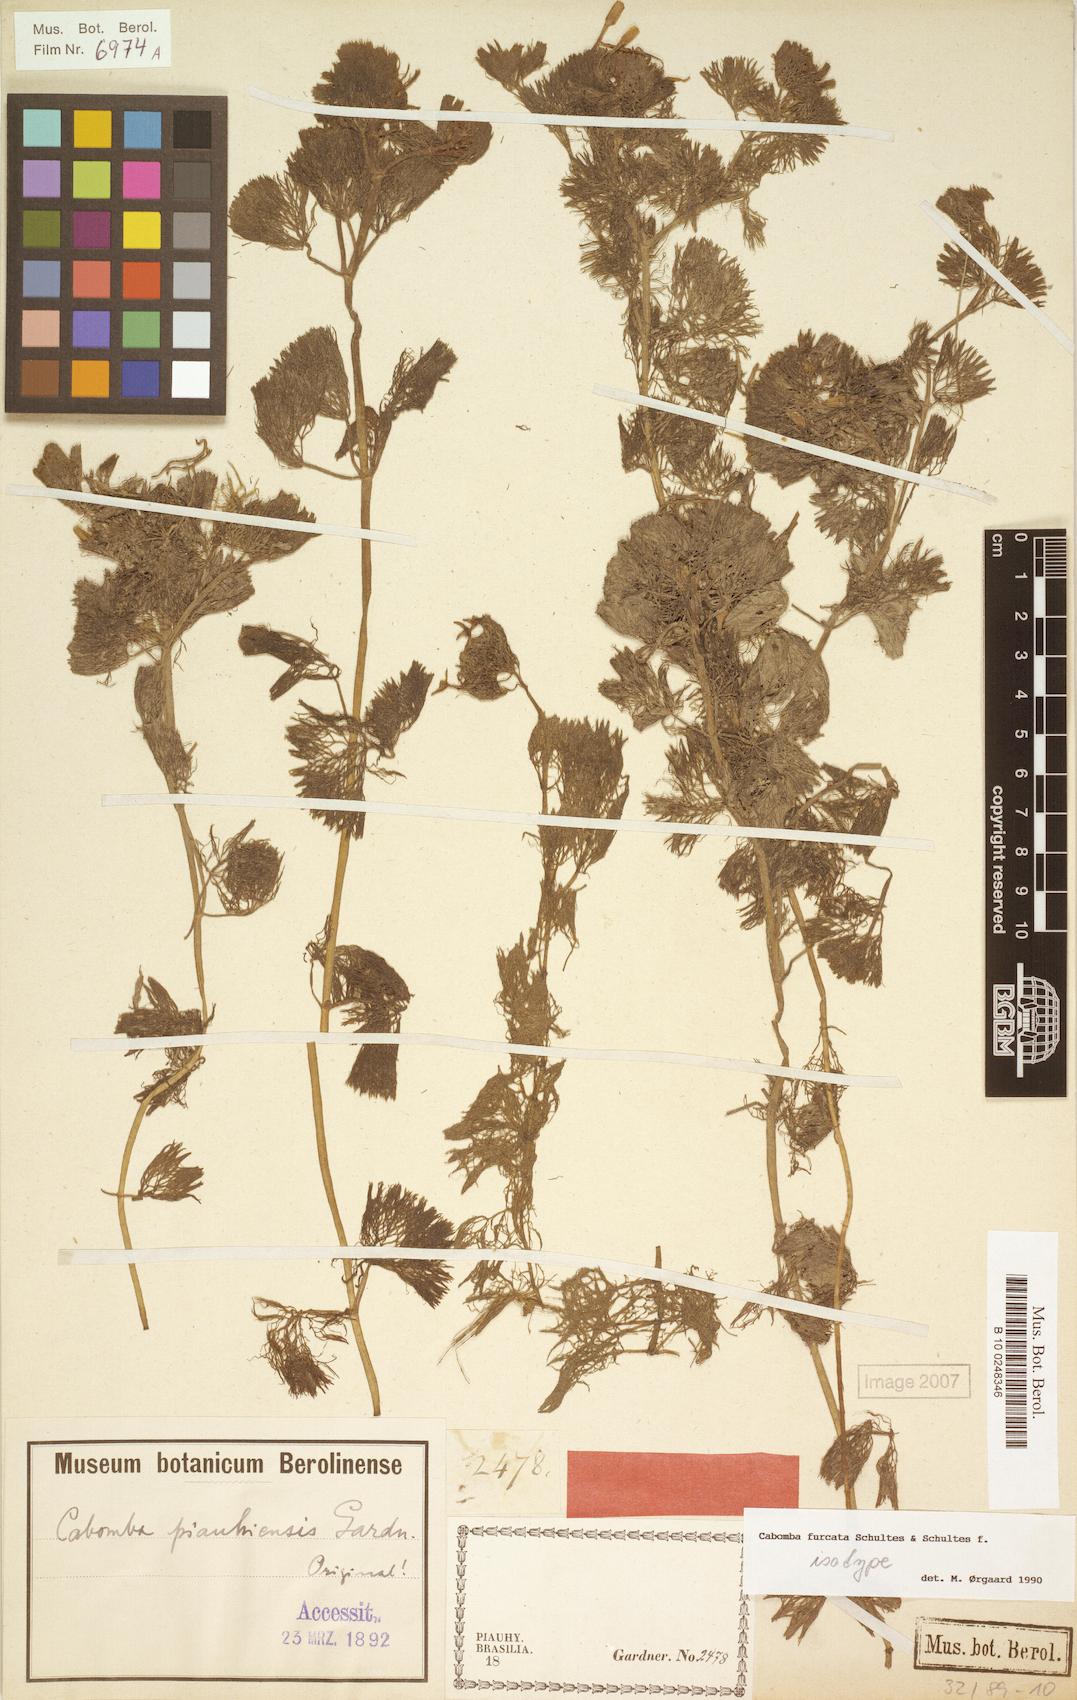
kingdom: Plantae
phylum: Tracheophyta
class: Magnoliopsida
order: Nymphaeales
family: Cabombaceae
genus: Cabomba
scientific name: Cabomba furcata
